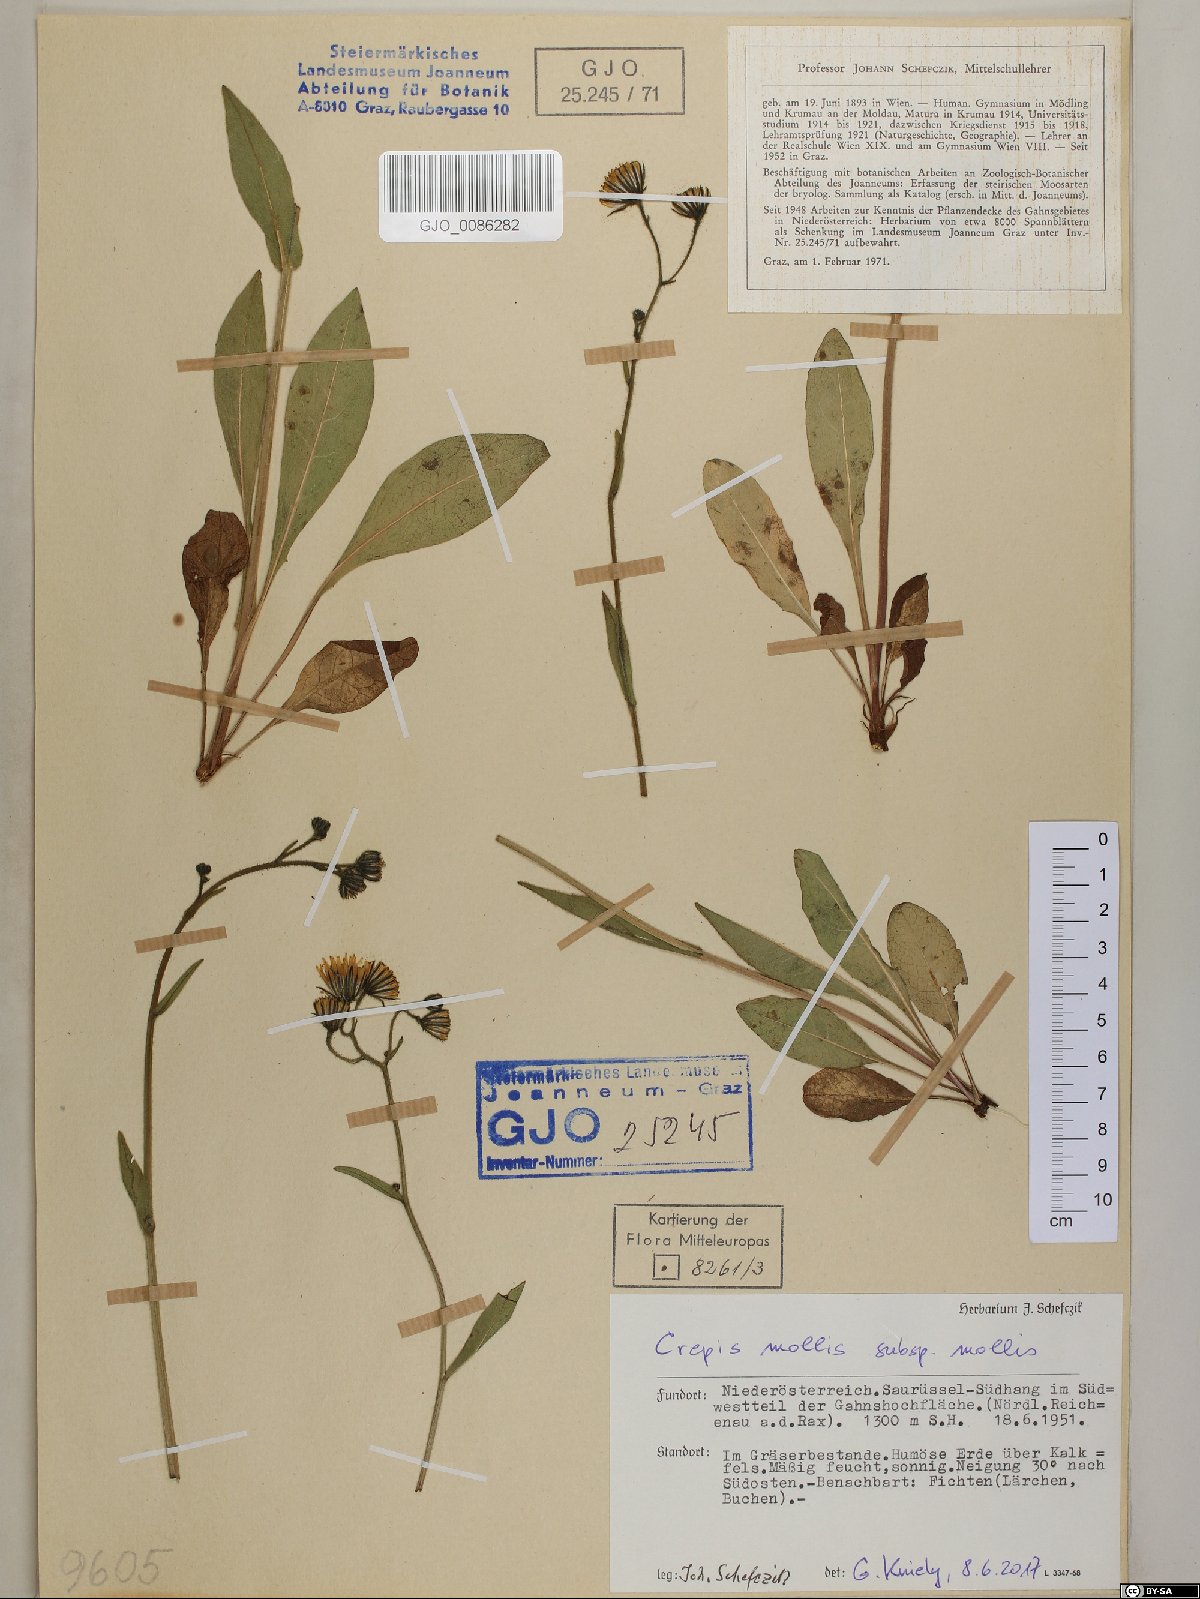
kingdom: Plantae
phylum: Tracheophyta
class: Magnoliopsida
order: Asterales
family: Asteraceae
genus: Crepis
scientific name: Crepis mollis
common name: Northern hawk's-beard
